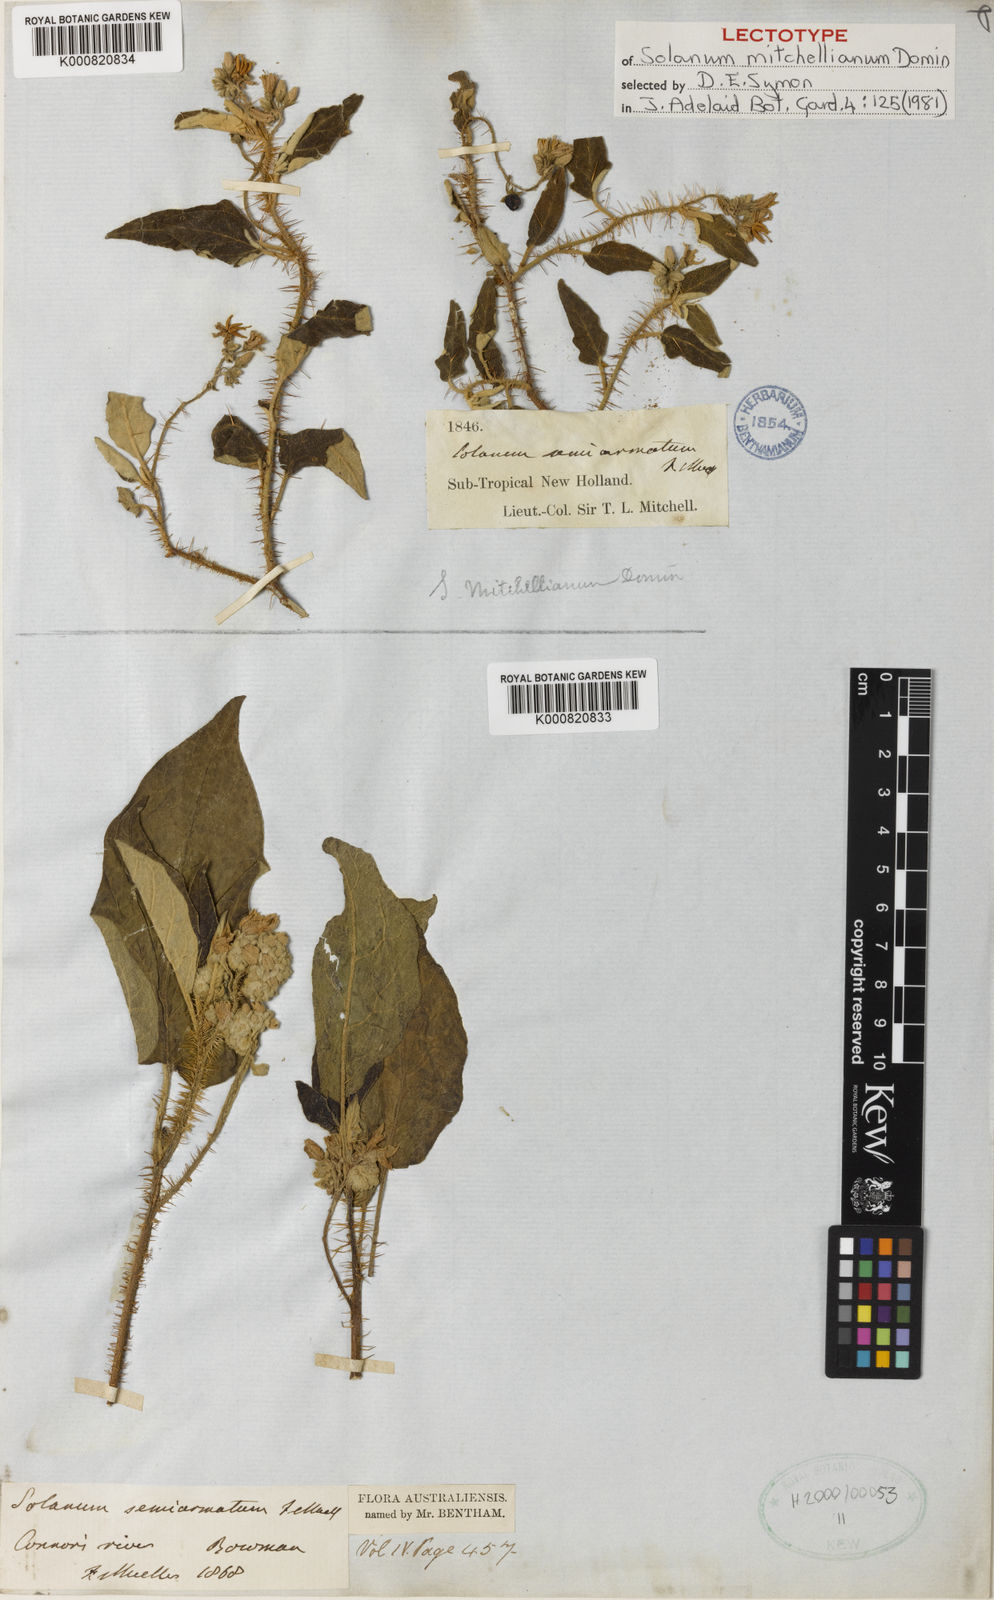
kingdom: Plantae
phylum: Tracheophyta
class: Magnoliopsida
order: Solanales
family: Solanaceae
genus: Solanum
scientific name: Solanum semiarmatum
